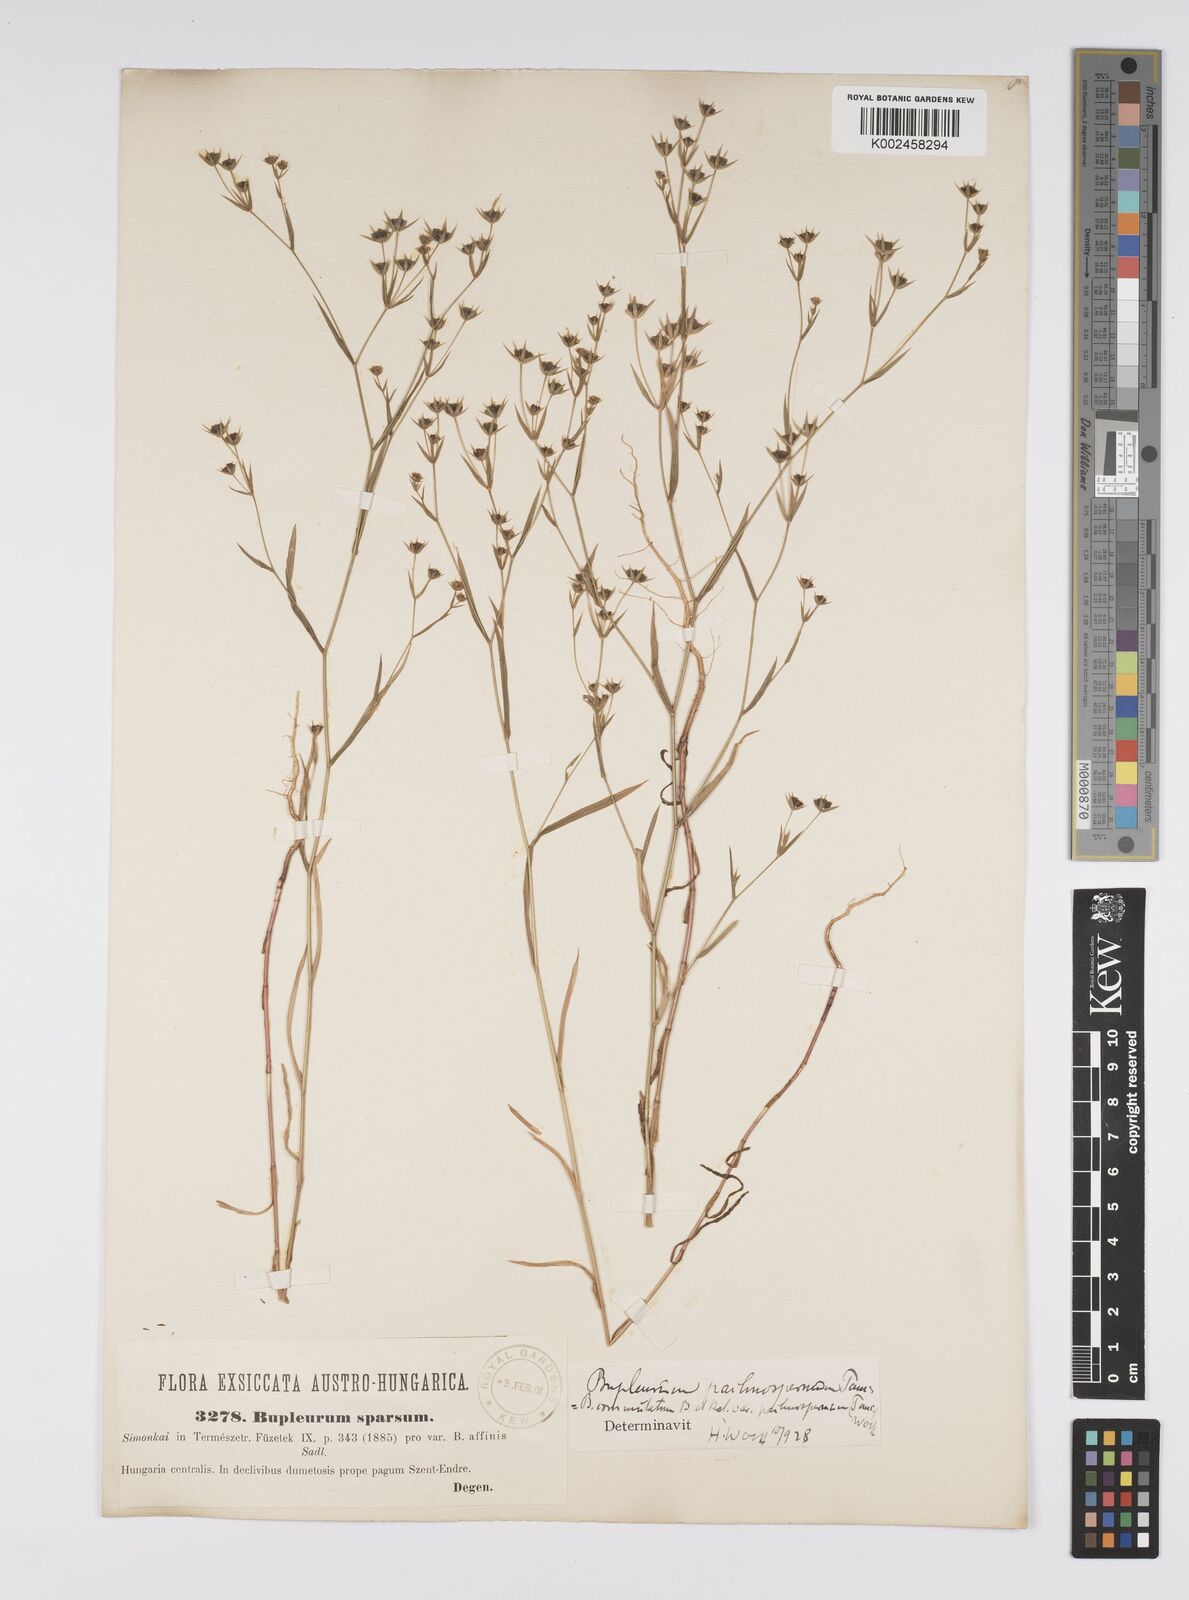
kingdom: Plantae
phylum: Tracheophyta
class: Magnoliopsida
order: Apiales
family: Apiaceae
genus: Bupleurum
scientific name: Bupleurum commutatum
